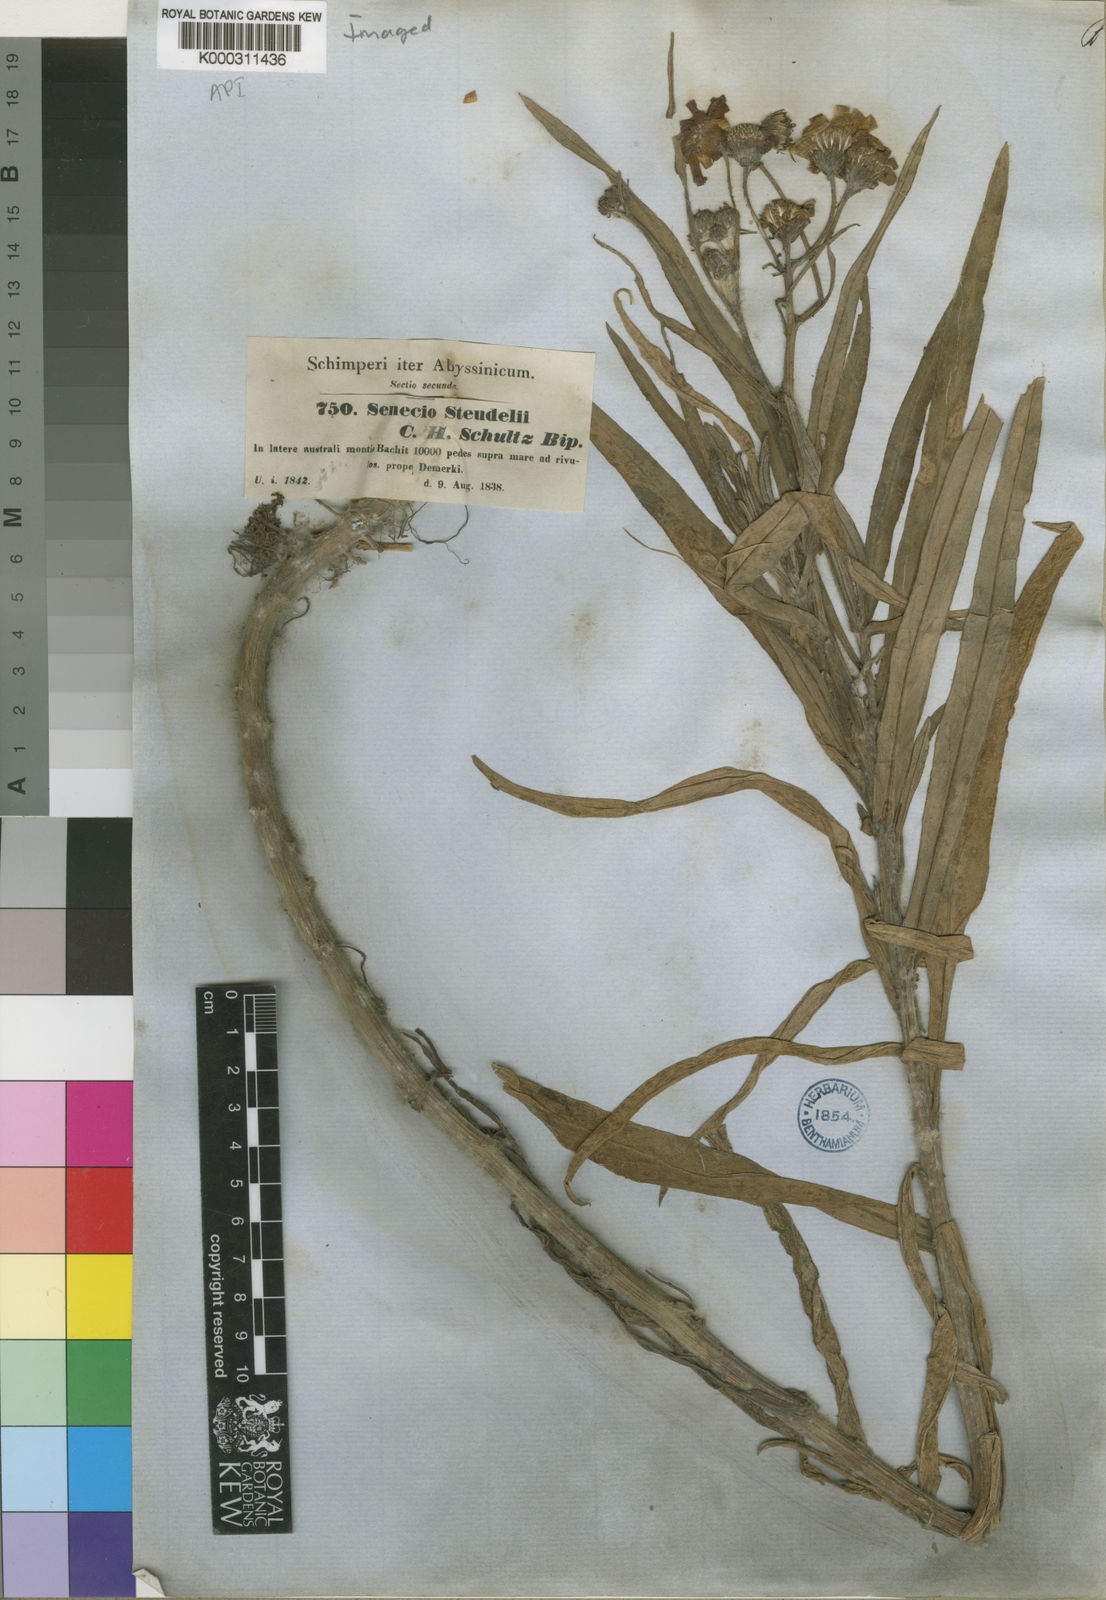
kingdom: Plantae
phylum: Tracheophyta
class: Magnoliopsida
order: Asterales
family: Asteraceae
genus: Senecio
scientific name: Senecio steudelii
